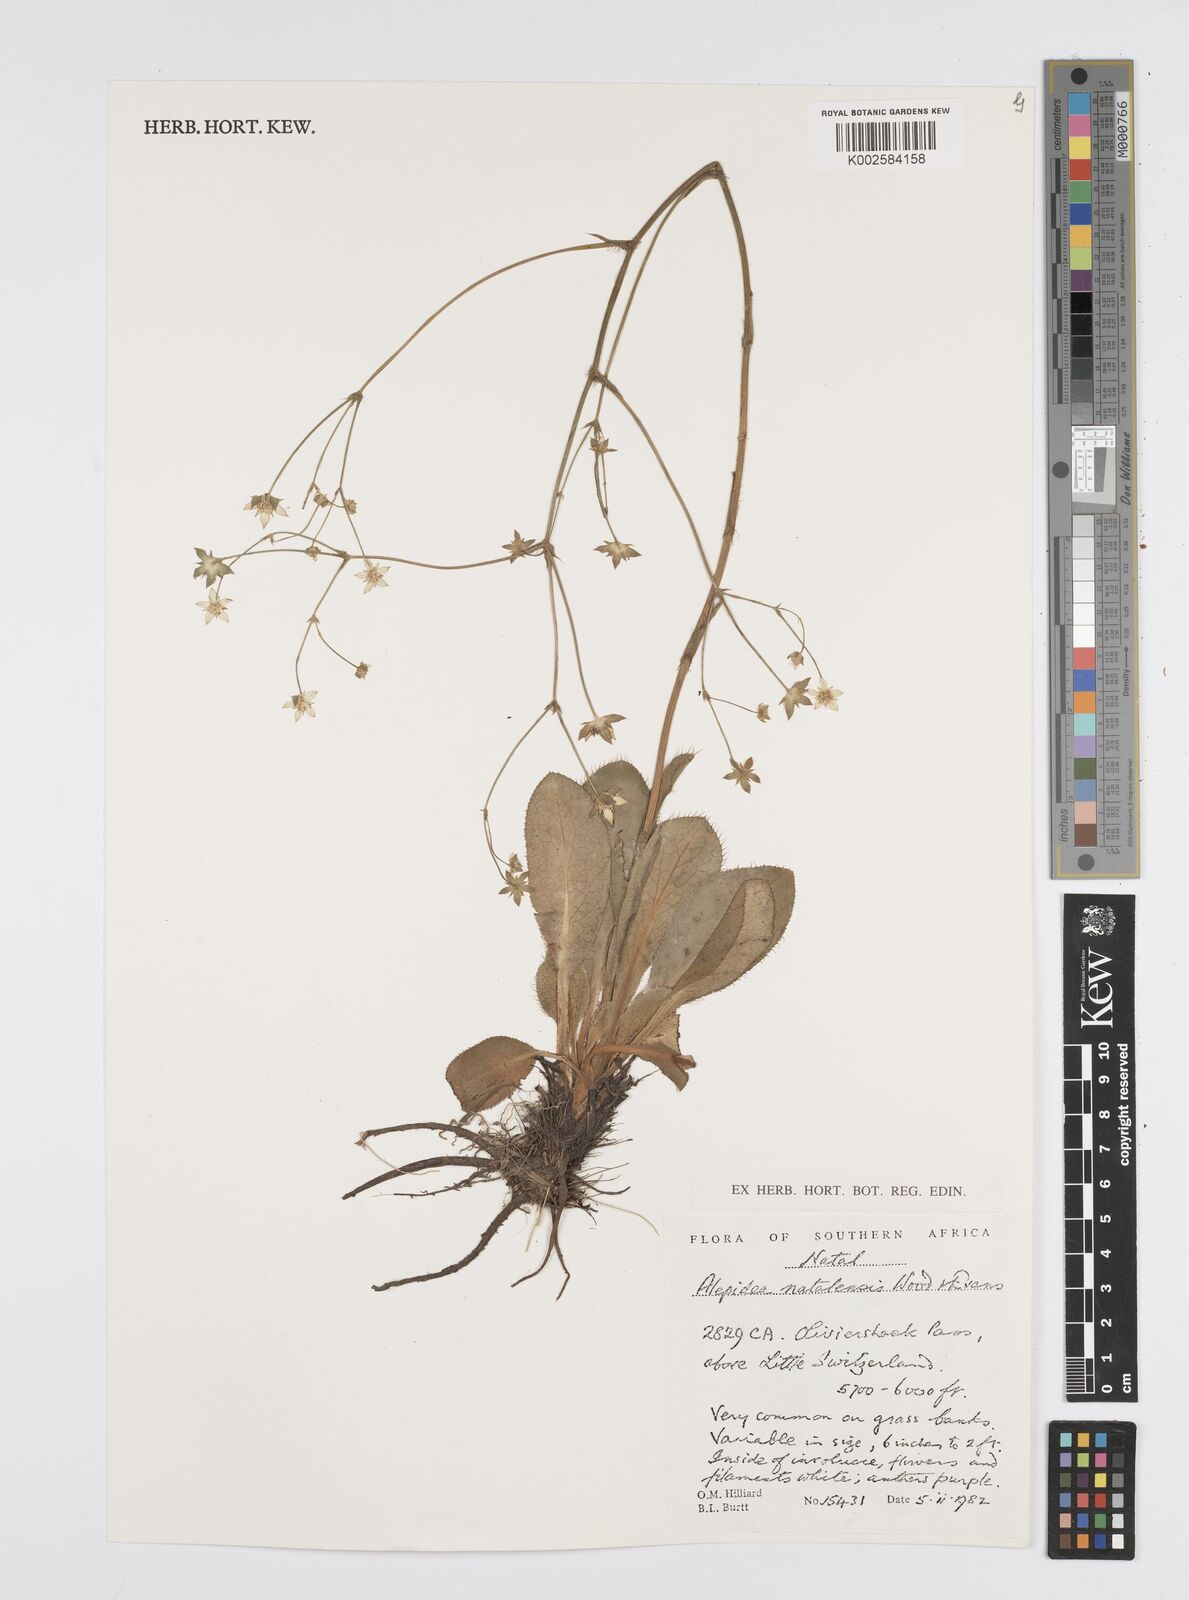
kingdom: Plantae
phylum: Tracheophyta
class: Magnoliopsida
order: Apiales
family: Apiaceae
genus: Alepidea
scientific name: Alepidea natalensis
